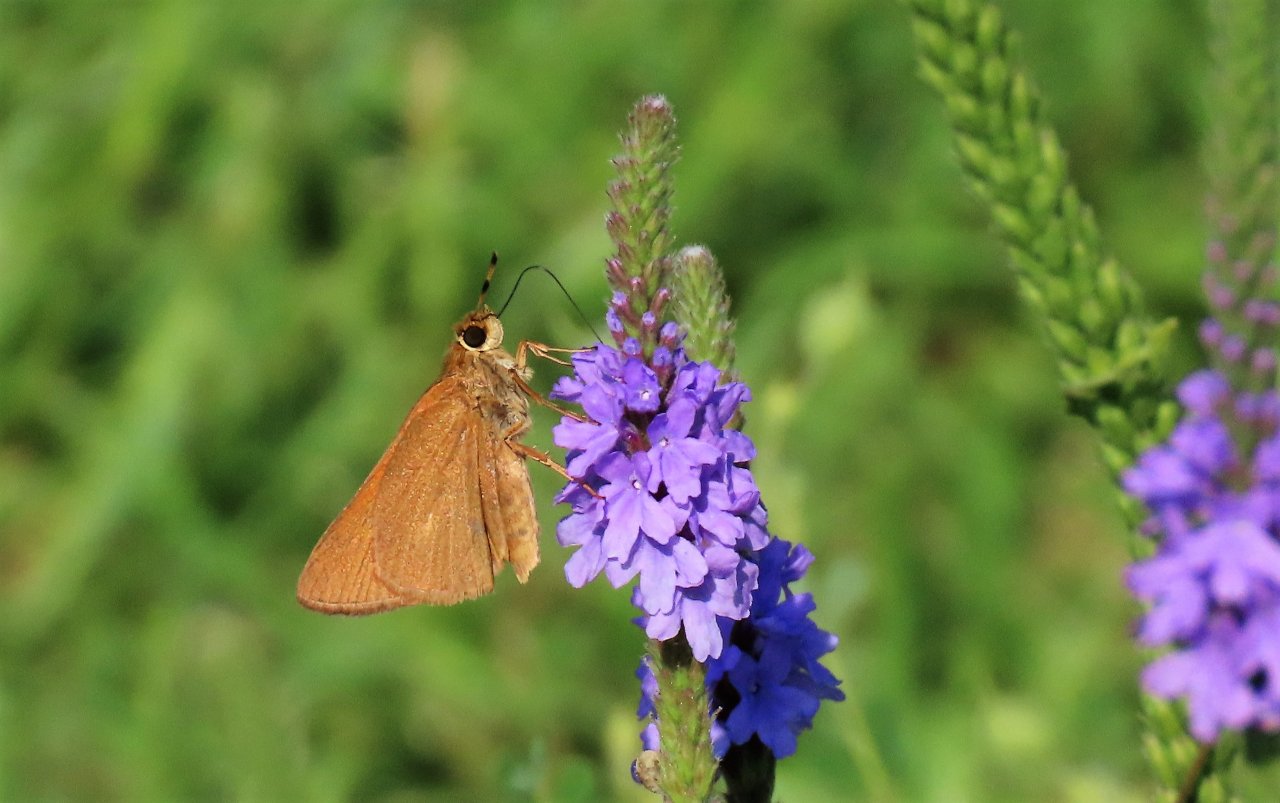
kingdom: Animalia
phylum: Arthropoda
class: Insecta
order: Lepidoptera
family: Hesperiidae
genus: Euphyes
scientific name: Euphyes pilatka
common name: Palatka Skipper
